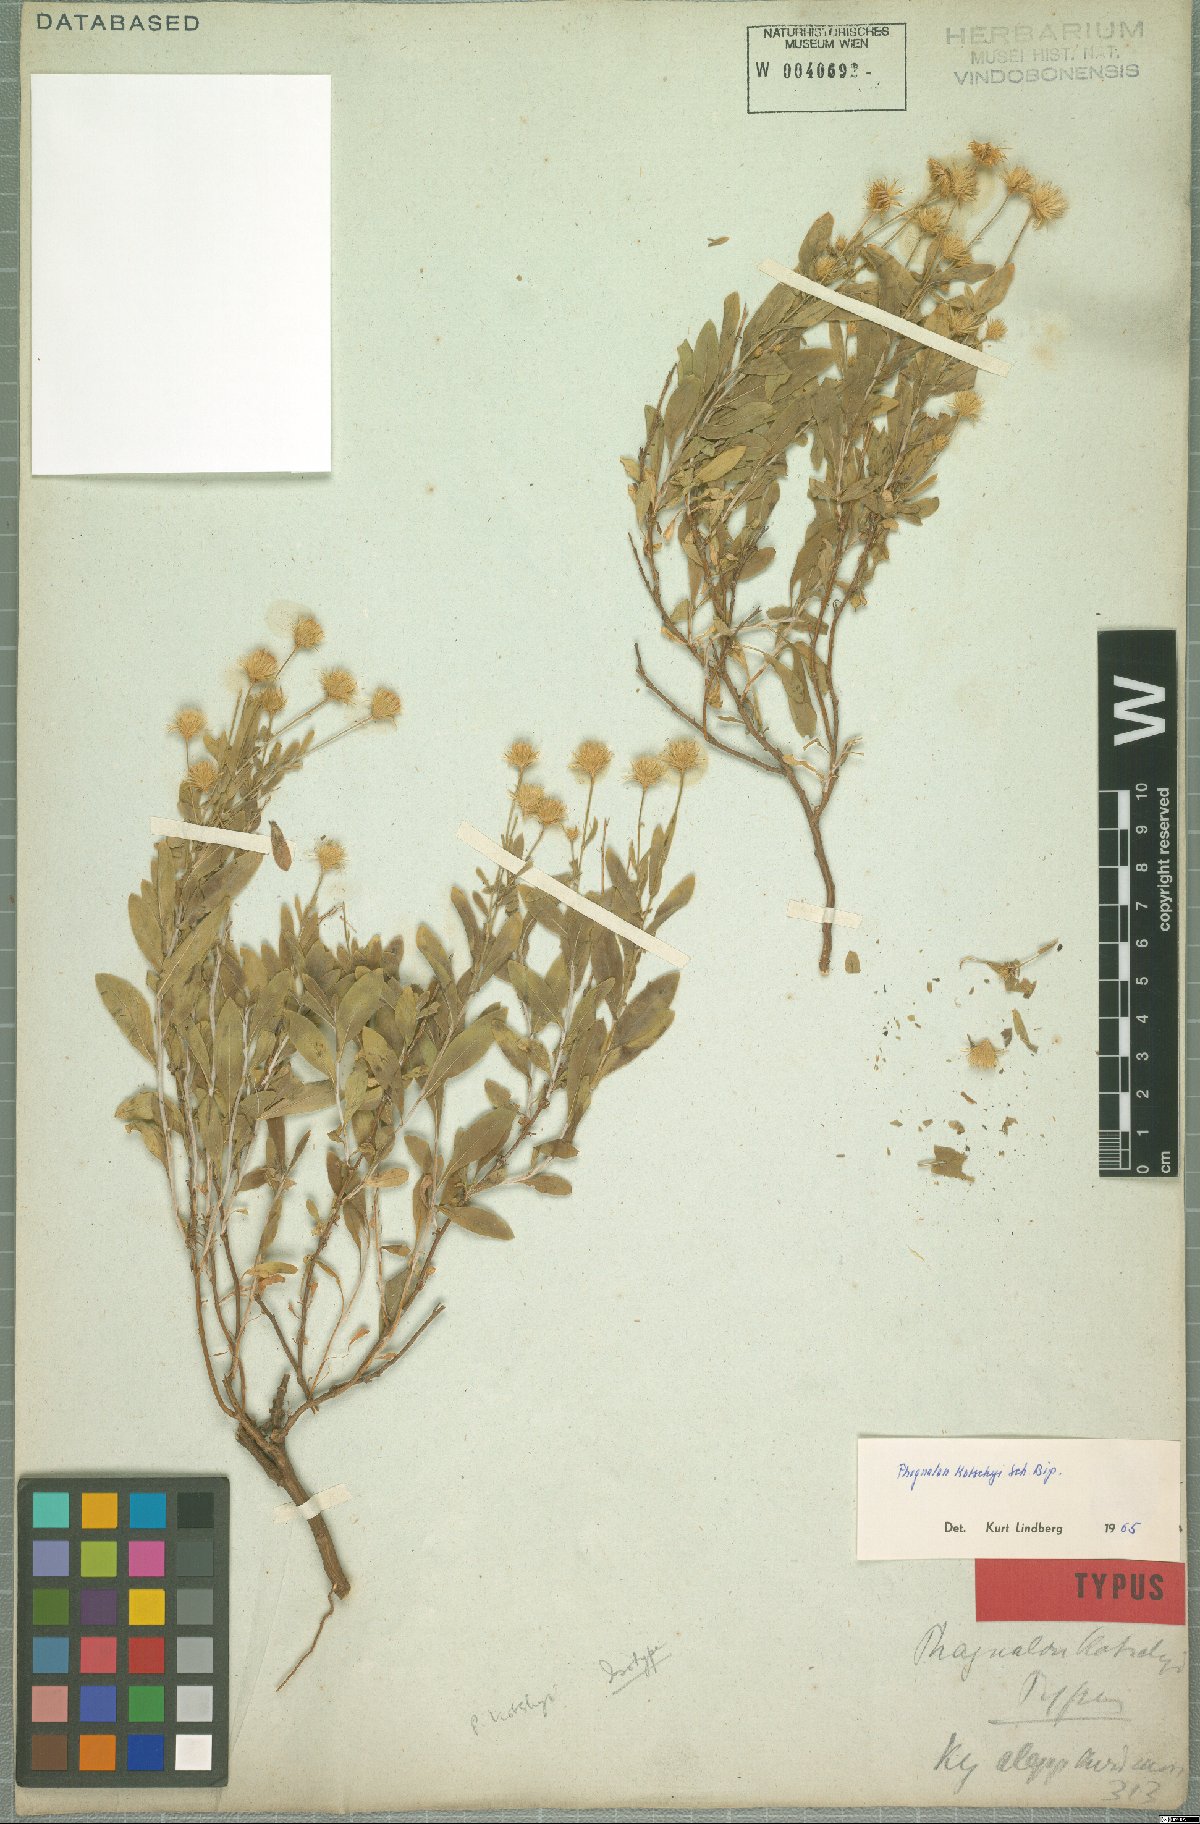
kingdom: Plantae
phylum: Tracheophyta
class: Magnoliopsida
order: Asterales
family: Asteraceae
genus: Phagnalon
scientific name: Phagnalon kotschyi
